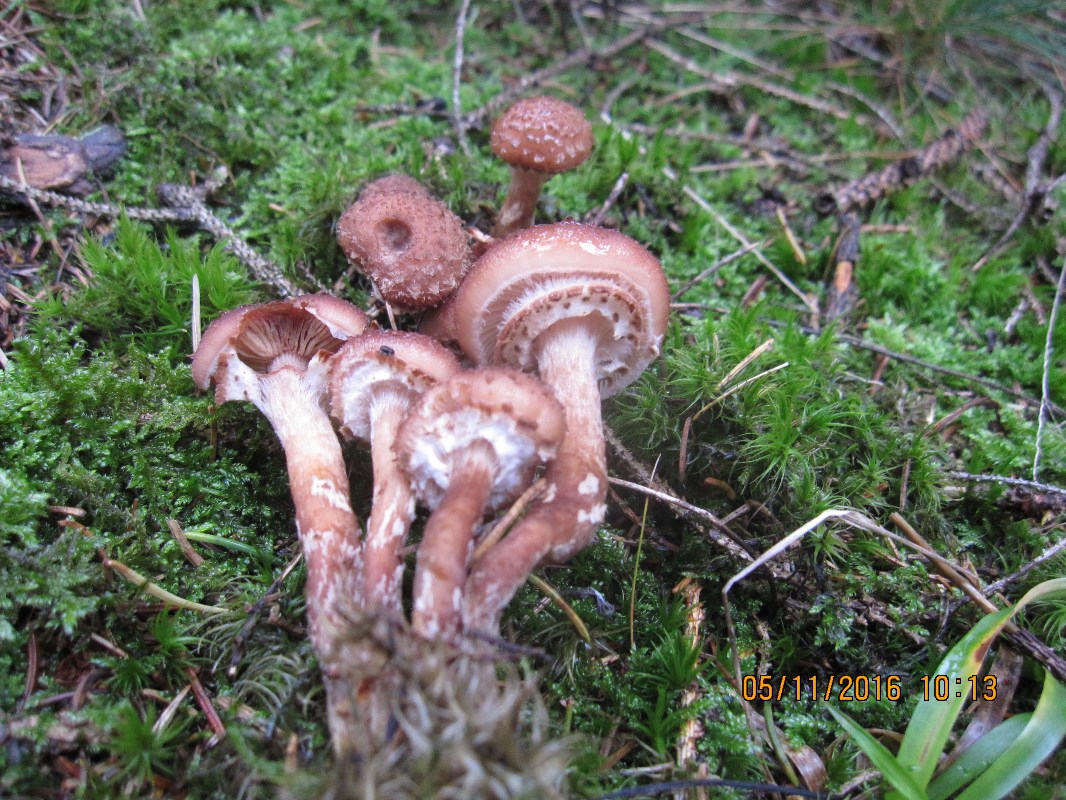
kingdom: Fungi
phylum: Basidiomycota
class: Agaricomycetes
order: Agaricales
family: Physalacriaceae
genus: Armillaria
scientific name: Armillaria ostoyae
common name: mørk honningsvamp
